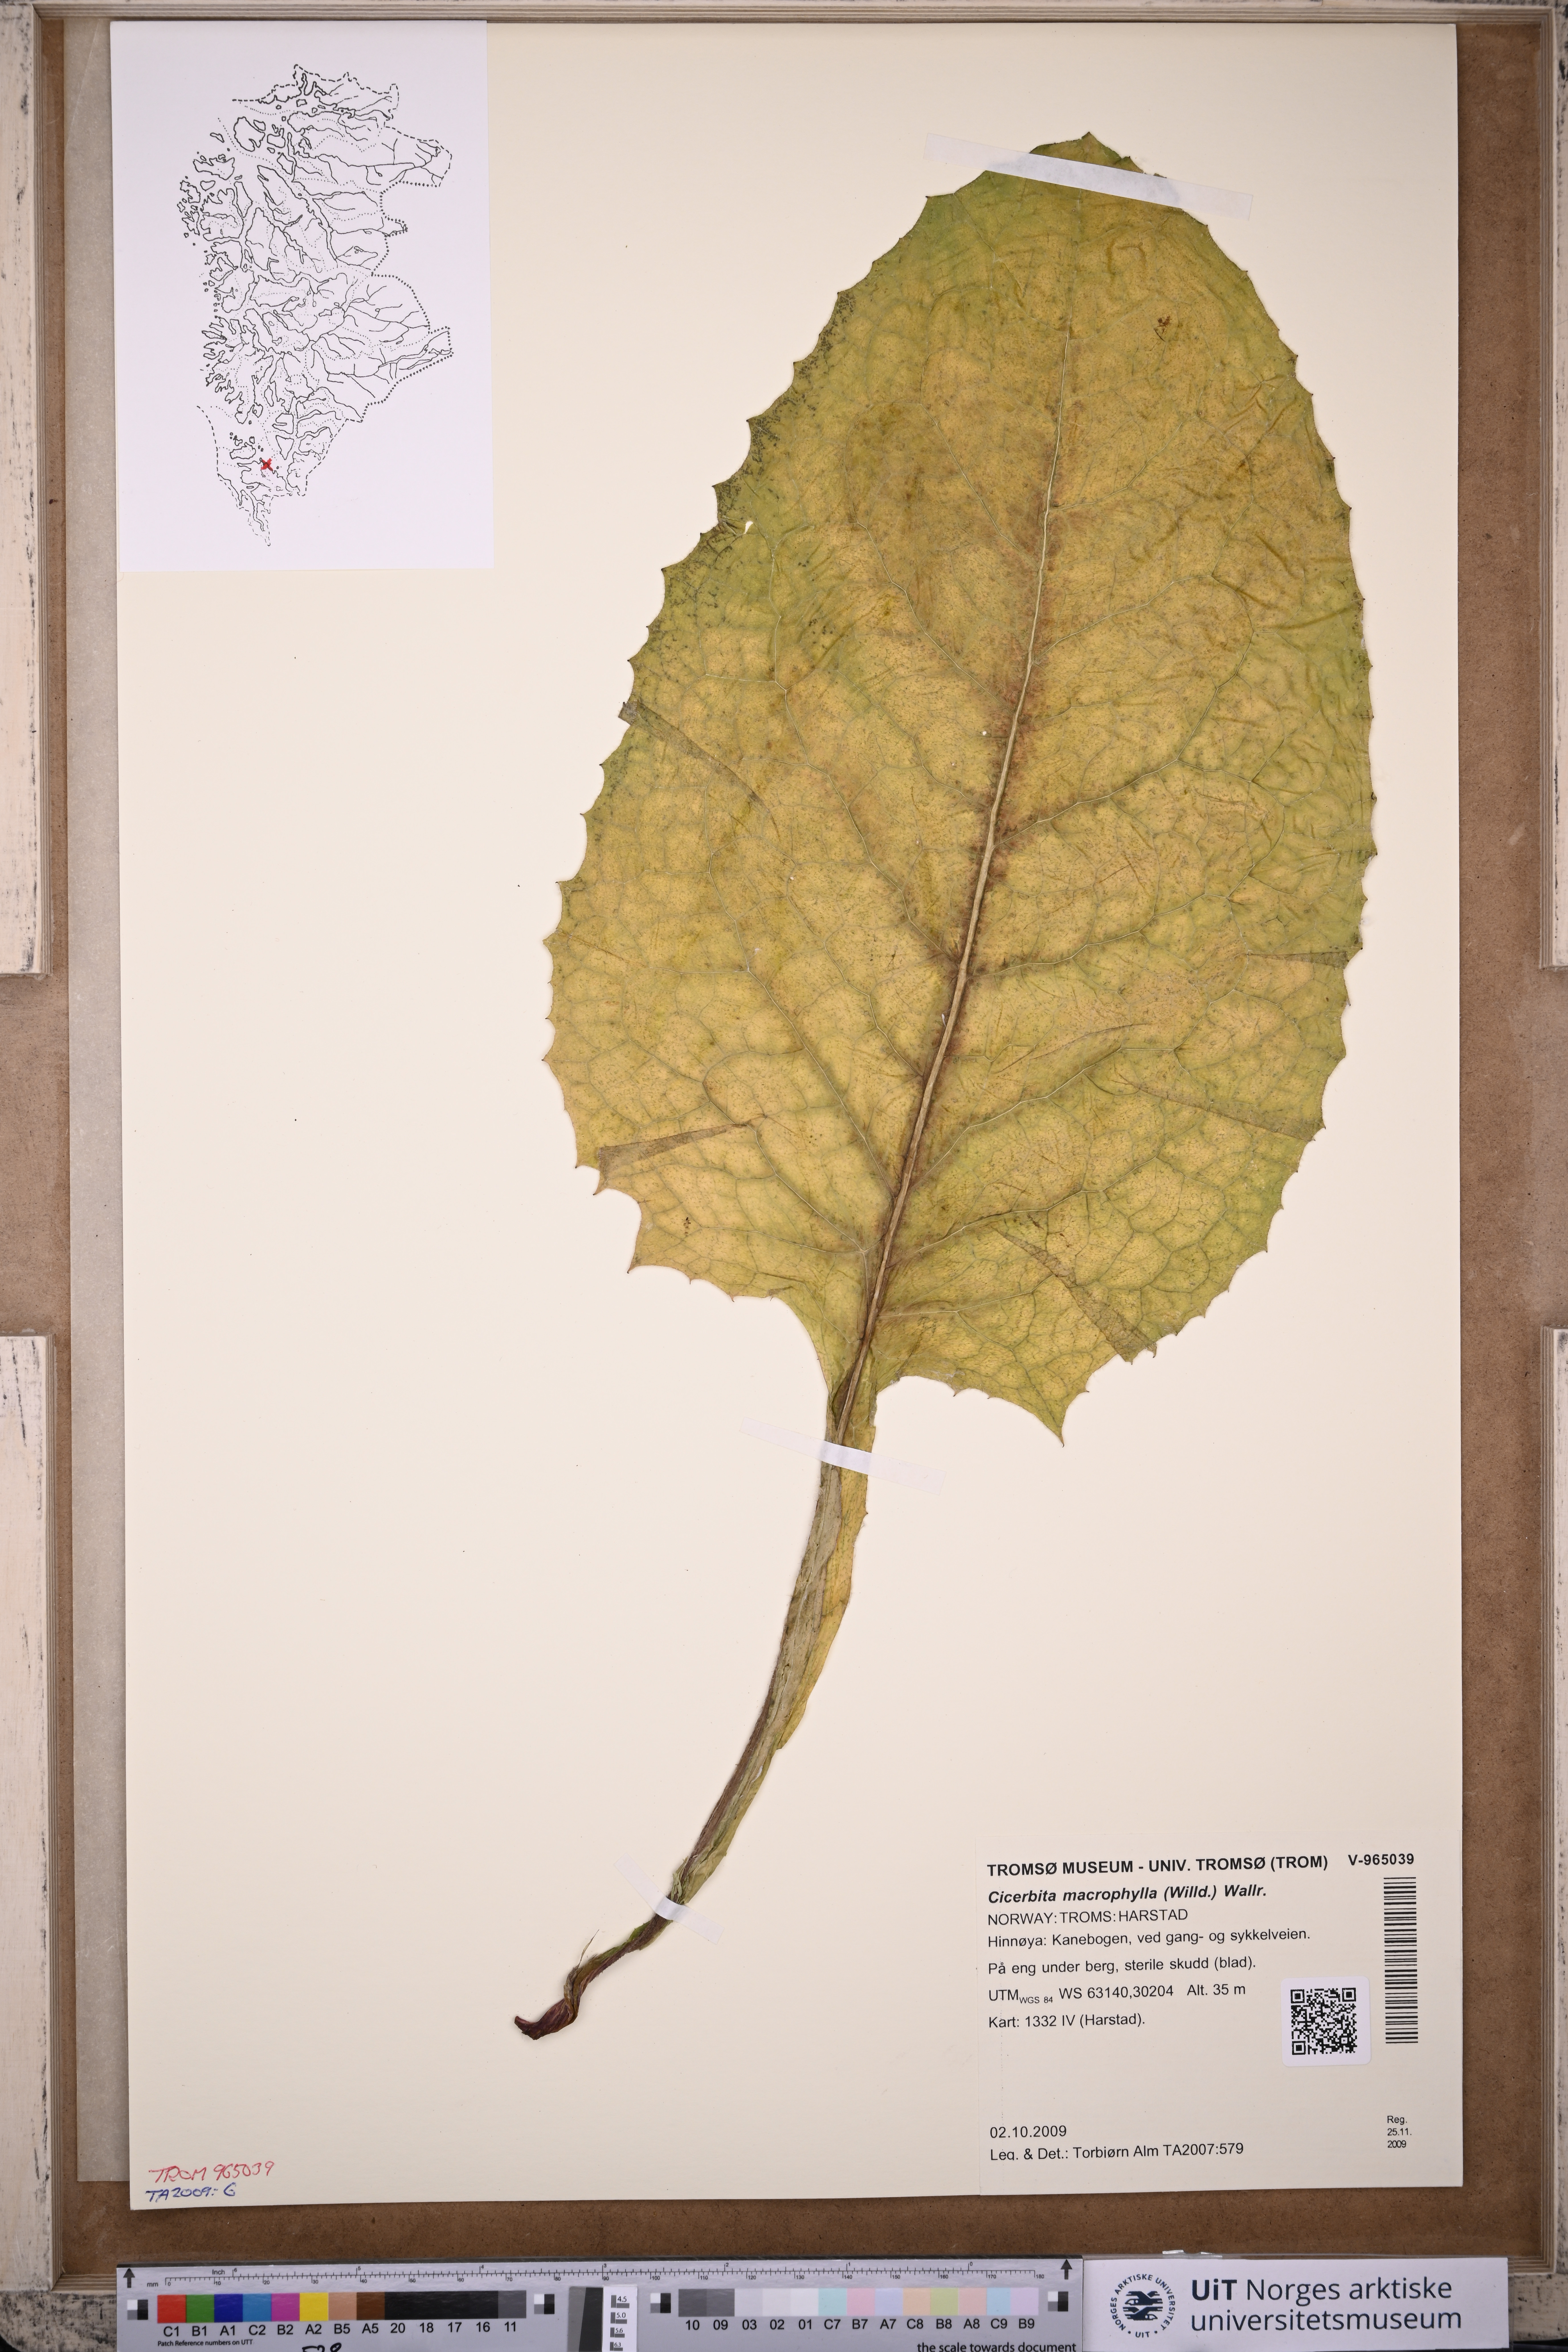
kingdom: Plantae
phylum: Tracheophyta
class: Magnoliopsida
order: Asterales
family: Asteraceae
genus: Lactuca
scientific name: Lactuca macrophylla
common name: Common blue-sow-thistle
